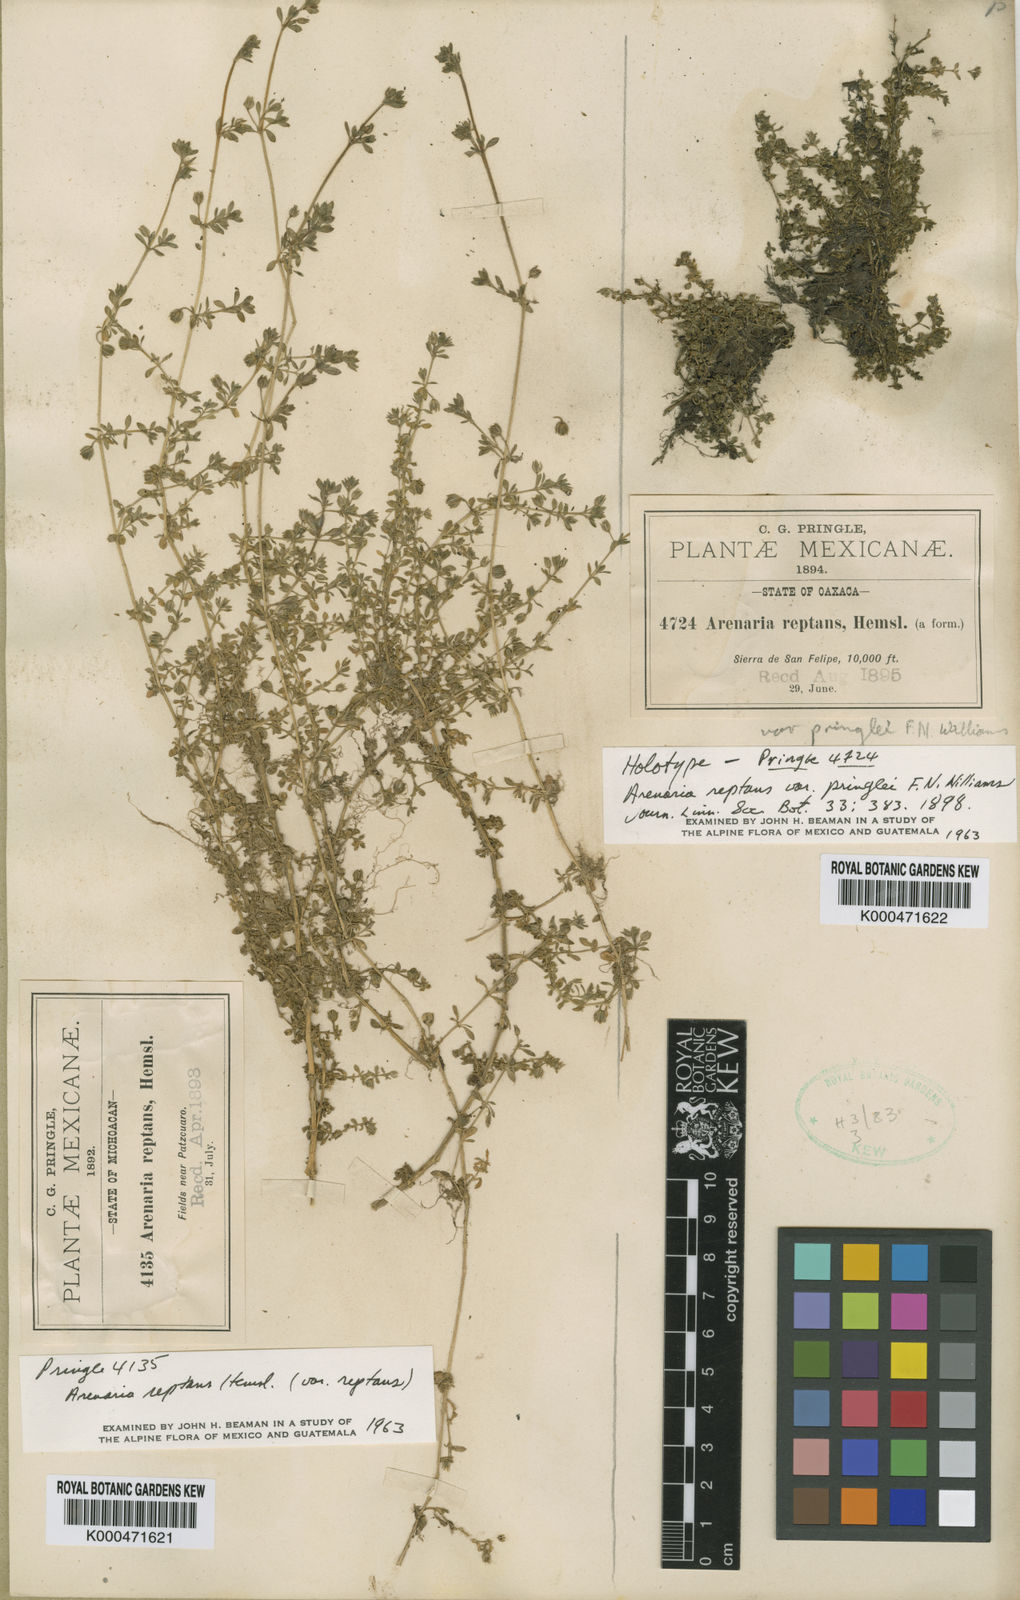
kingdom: Plantae
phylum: Tracheophyta
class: Magnoliopsida
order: Caryophyllales
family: Caryophyllaceae
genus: Arenaria
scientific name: Arenaria reptans
